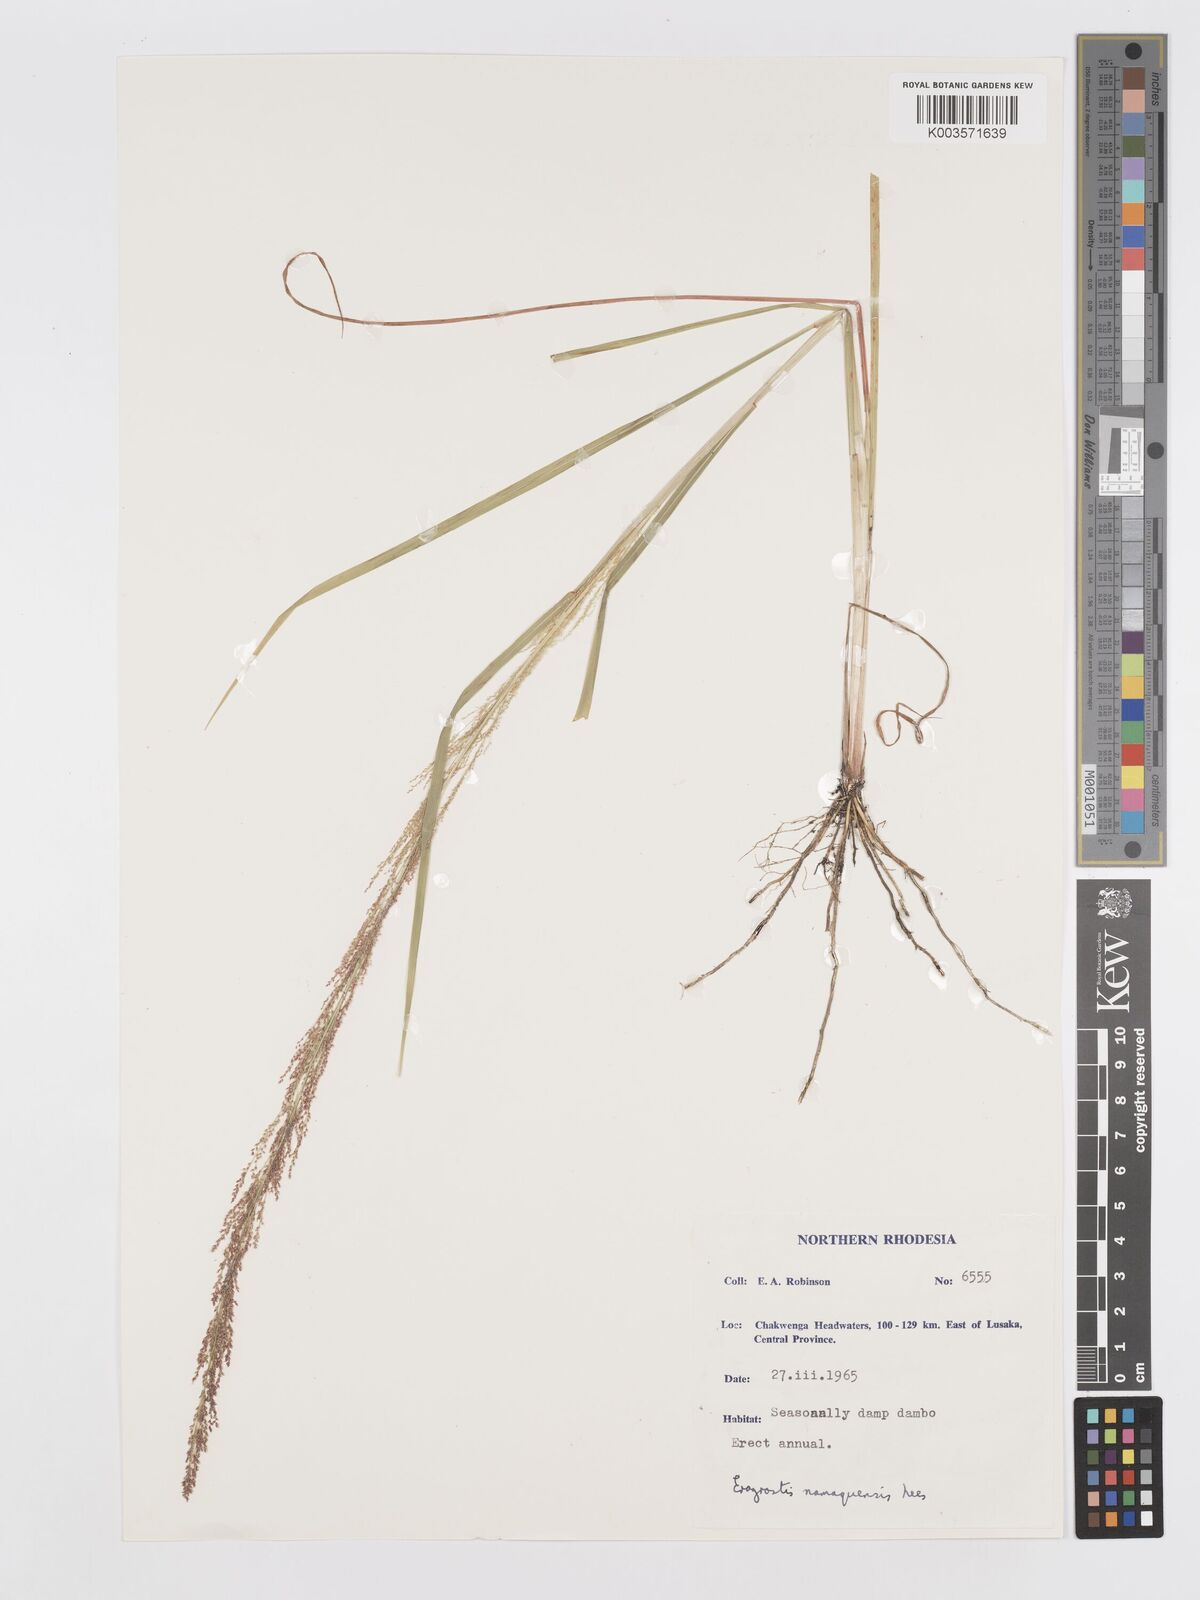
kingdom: Plantae
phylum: Tracheophyta
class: Liliopsida
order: Poales
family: Poaceae
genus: Eragrostis
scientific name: Eragrostis japonica
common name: Pond lovegrass
